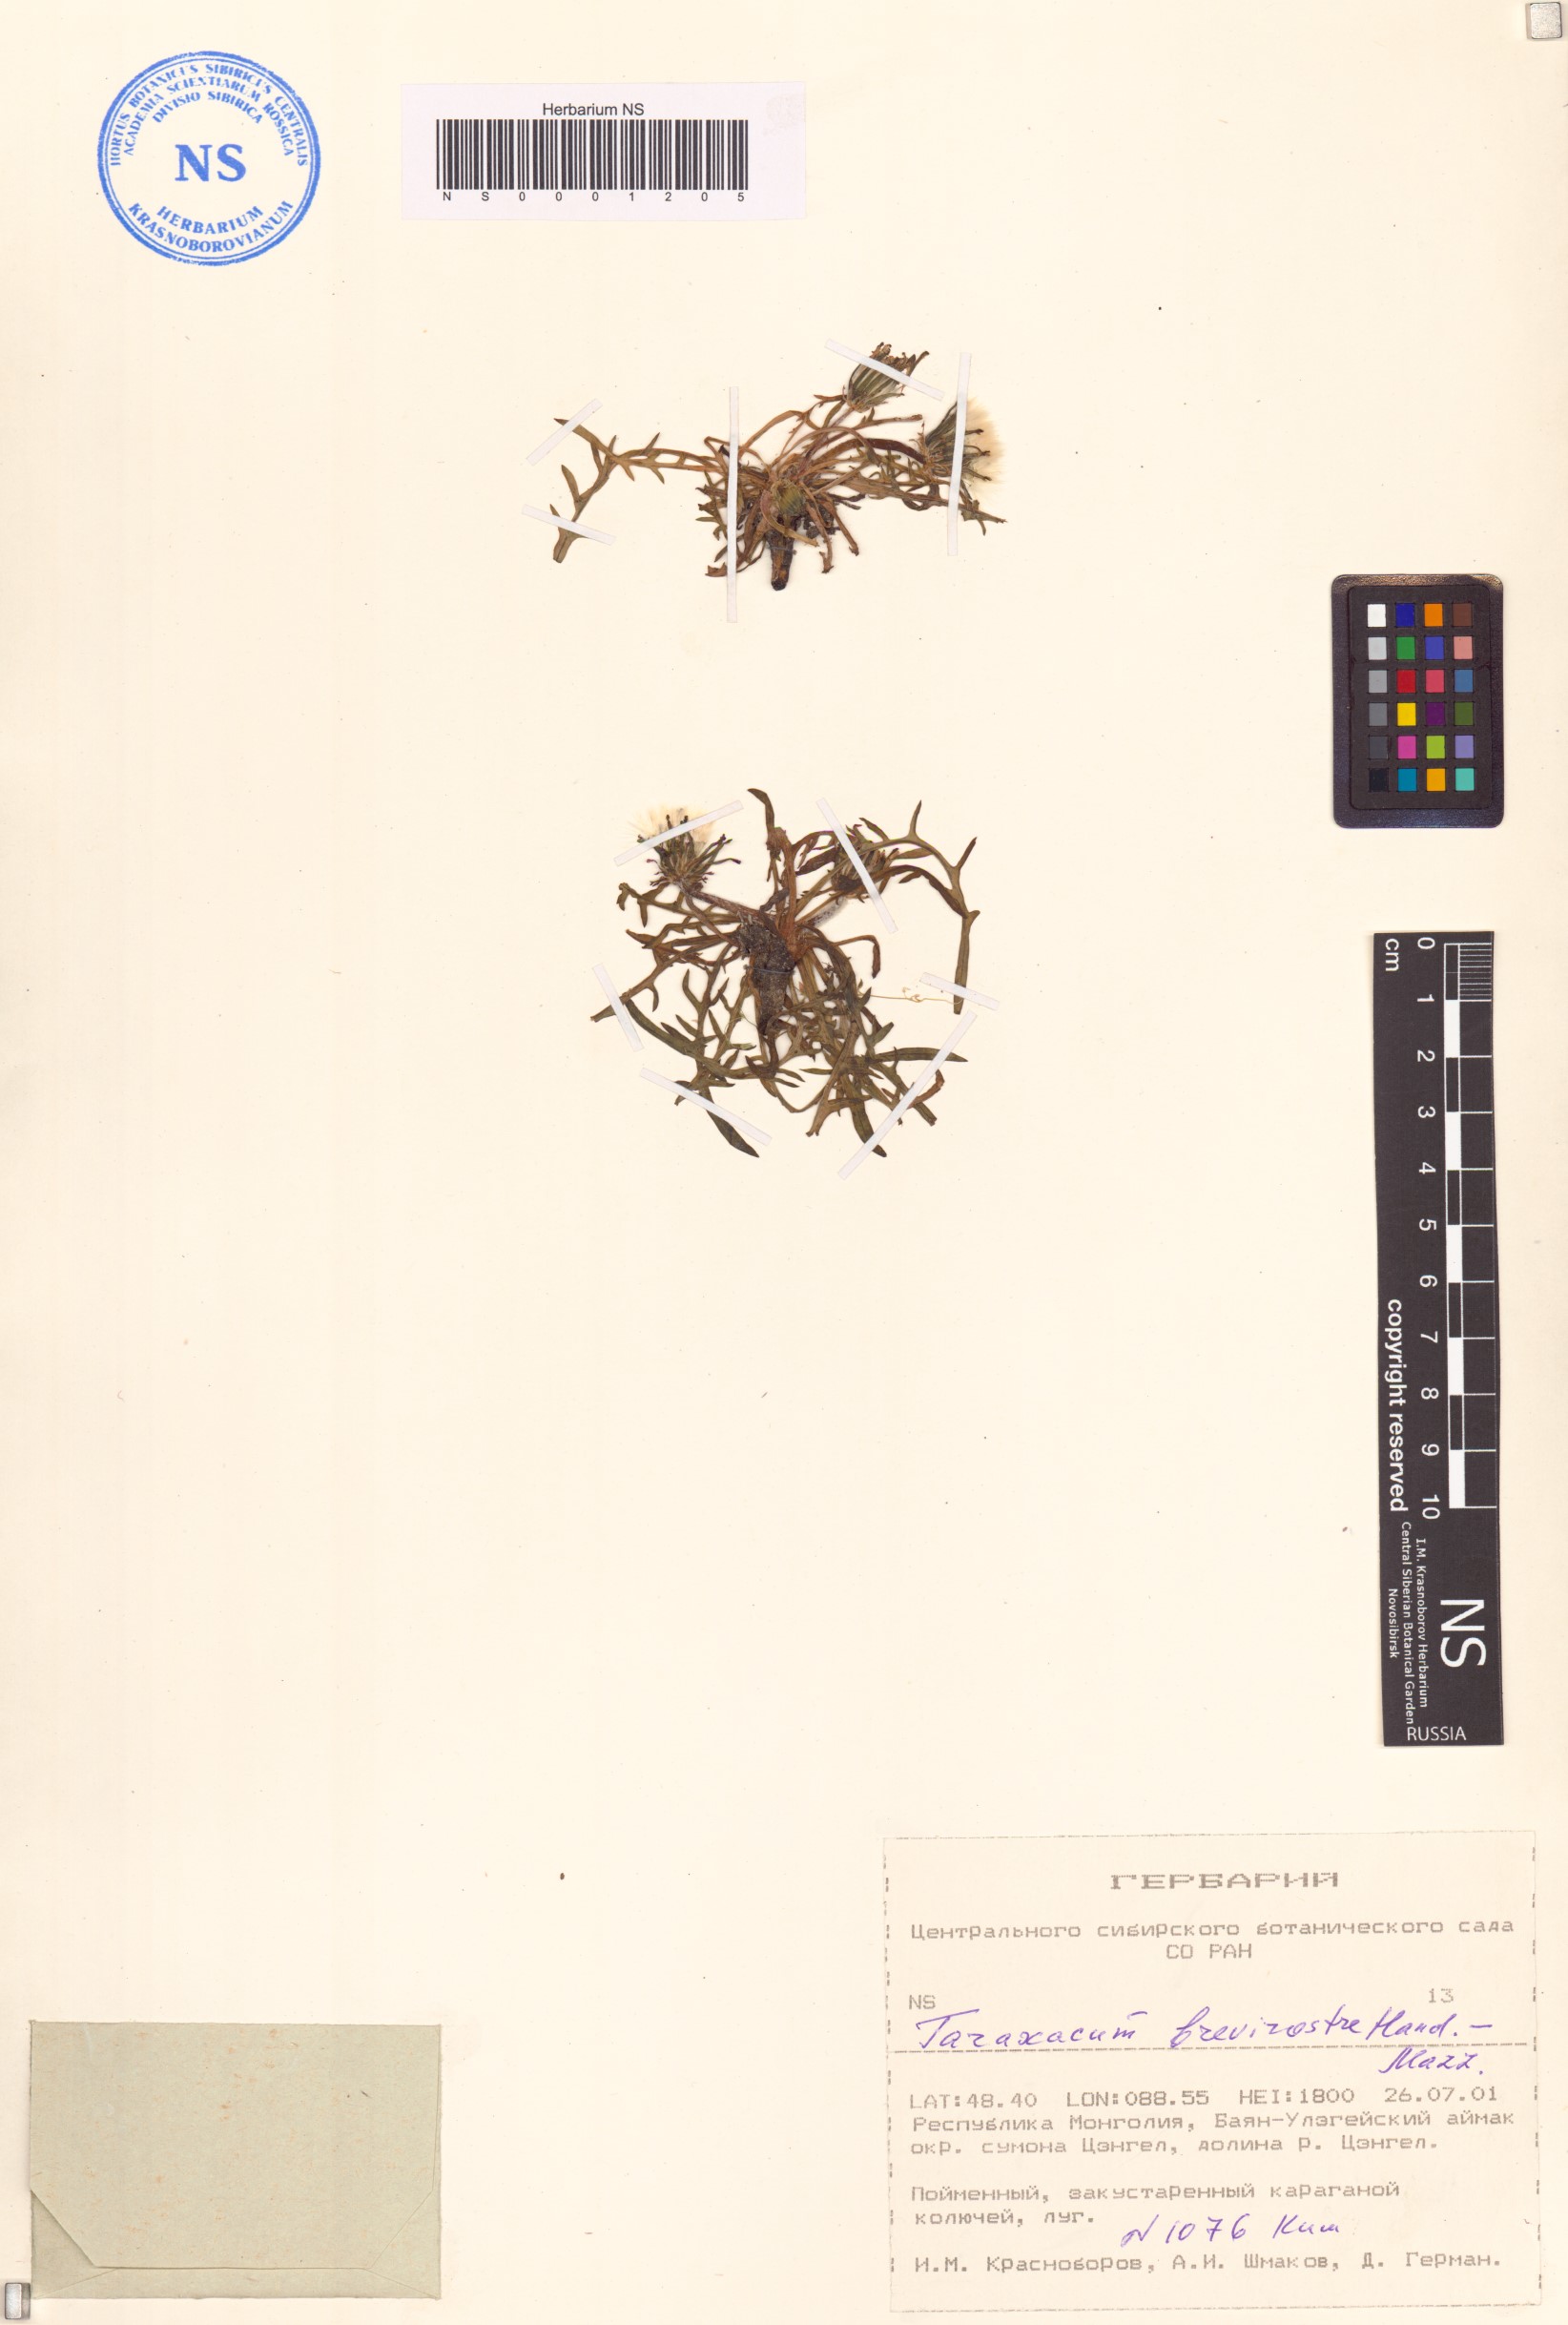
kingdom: Plantae
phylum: Tracheophyta
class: Magnoliopsida
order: Asterales
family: Asteraceae
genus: Taraxacum
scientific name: Taraxacum brevirostre
